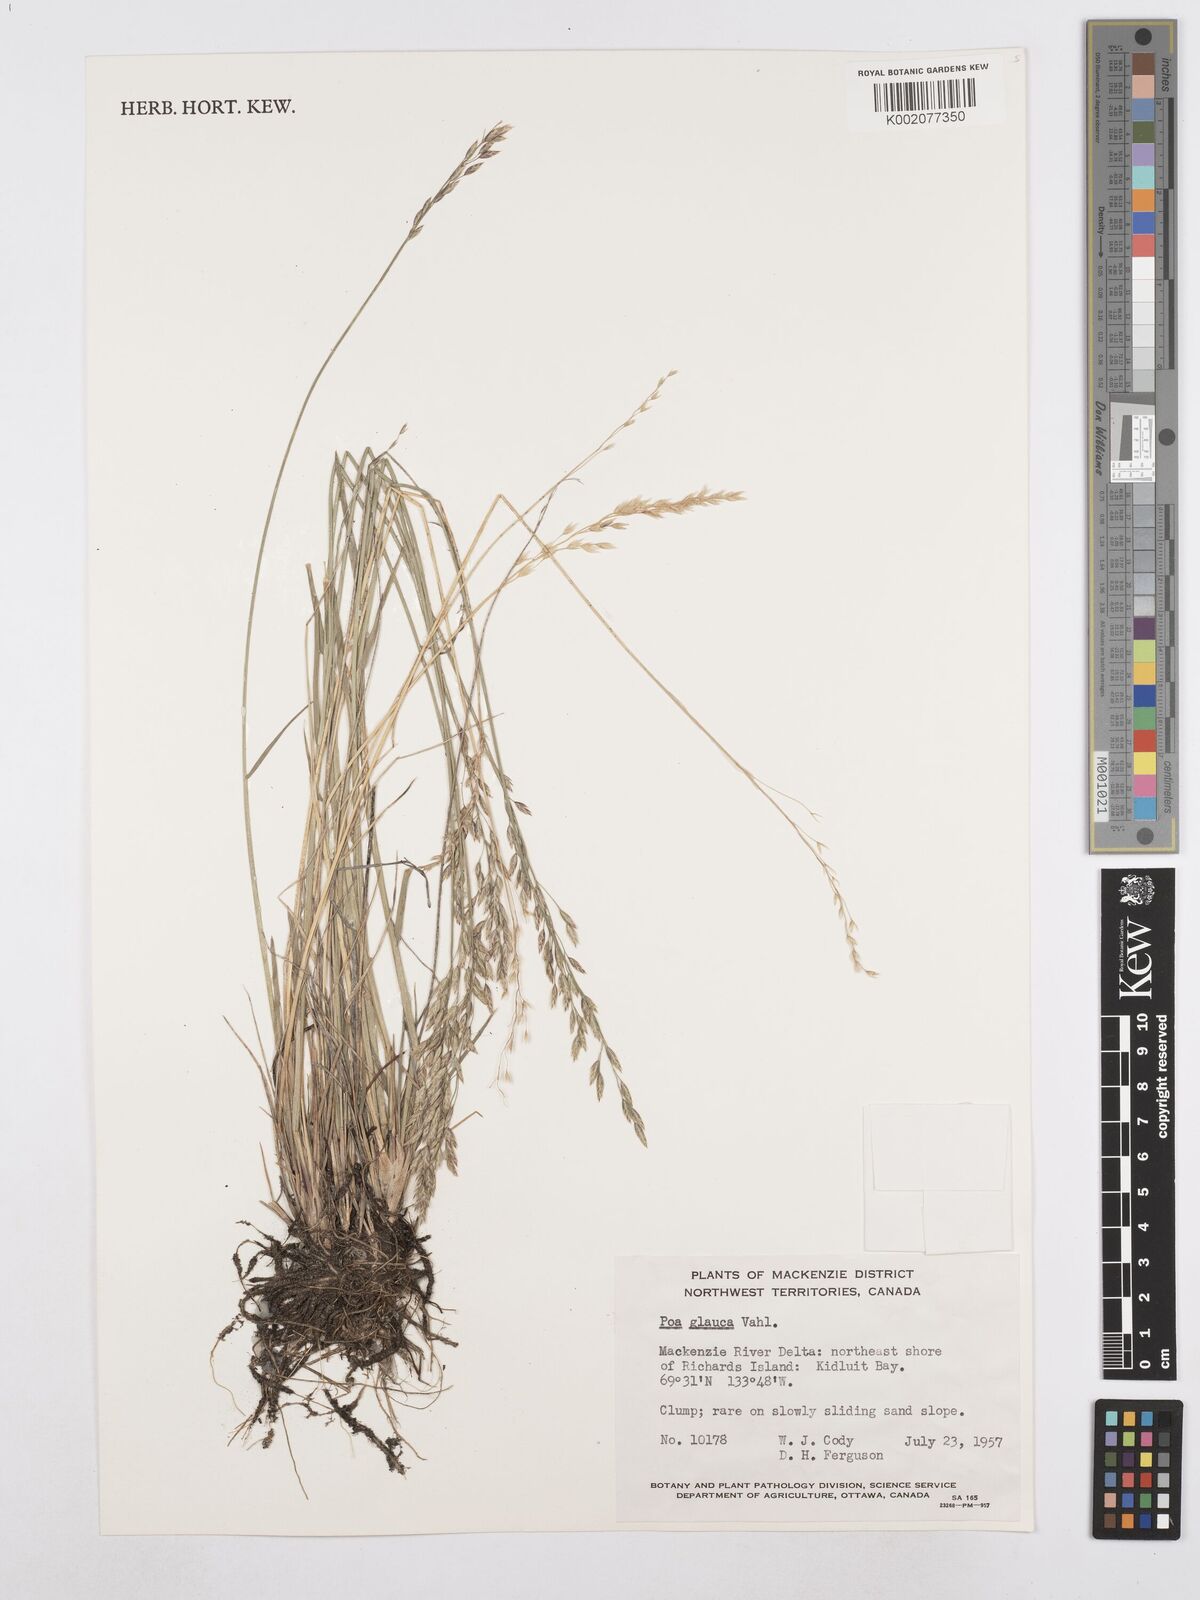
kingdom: Plantae
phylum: Tracheophyta
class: Liliopsida
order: Poales
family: Poaceae
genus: Poa
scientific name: Poa glauca
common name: Glaucous bluegrass
